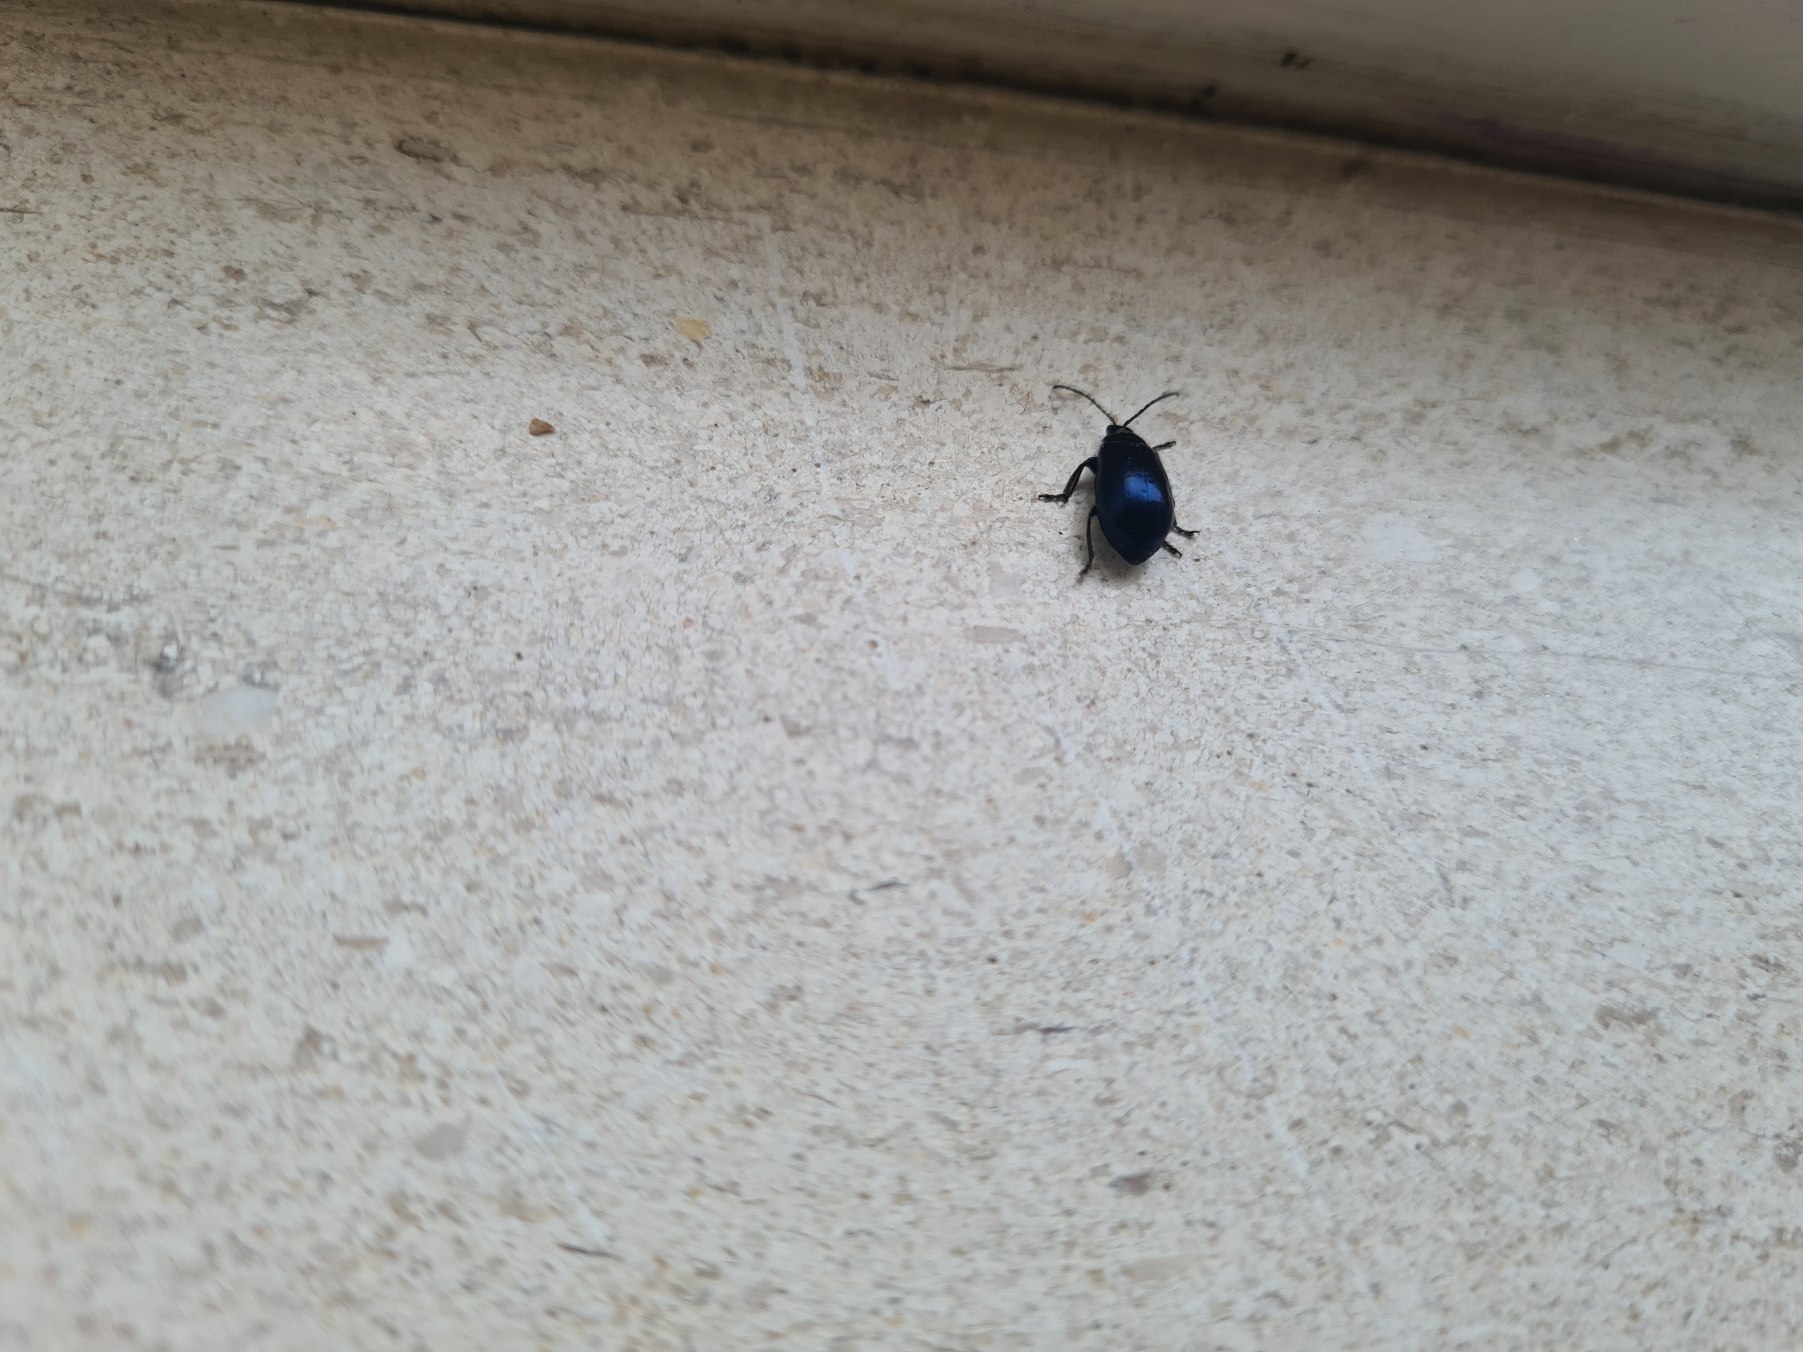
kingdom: Animalia
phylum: Arthropoda
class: Insecta
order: Coleoptera
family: Chrysomelidae
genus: Agelastica
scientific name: Agelastica alni
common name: Ellebladbille
